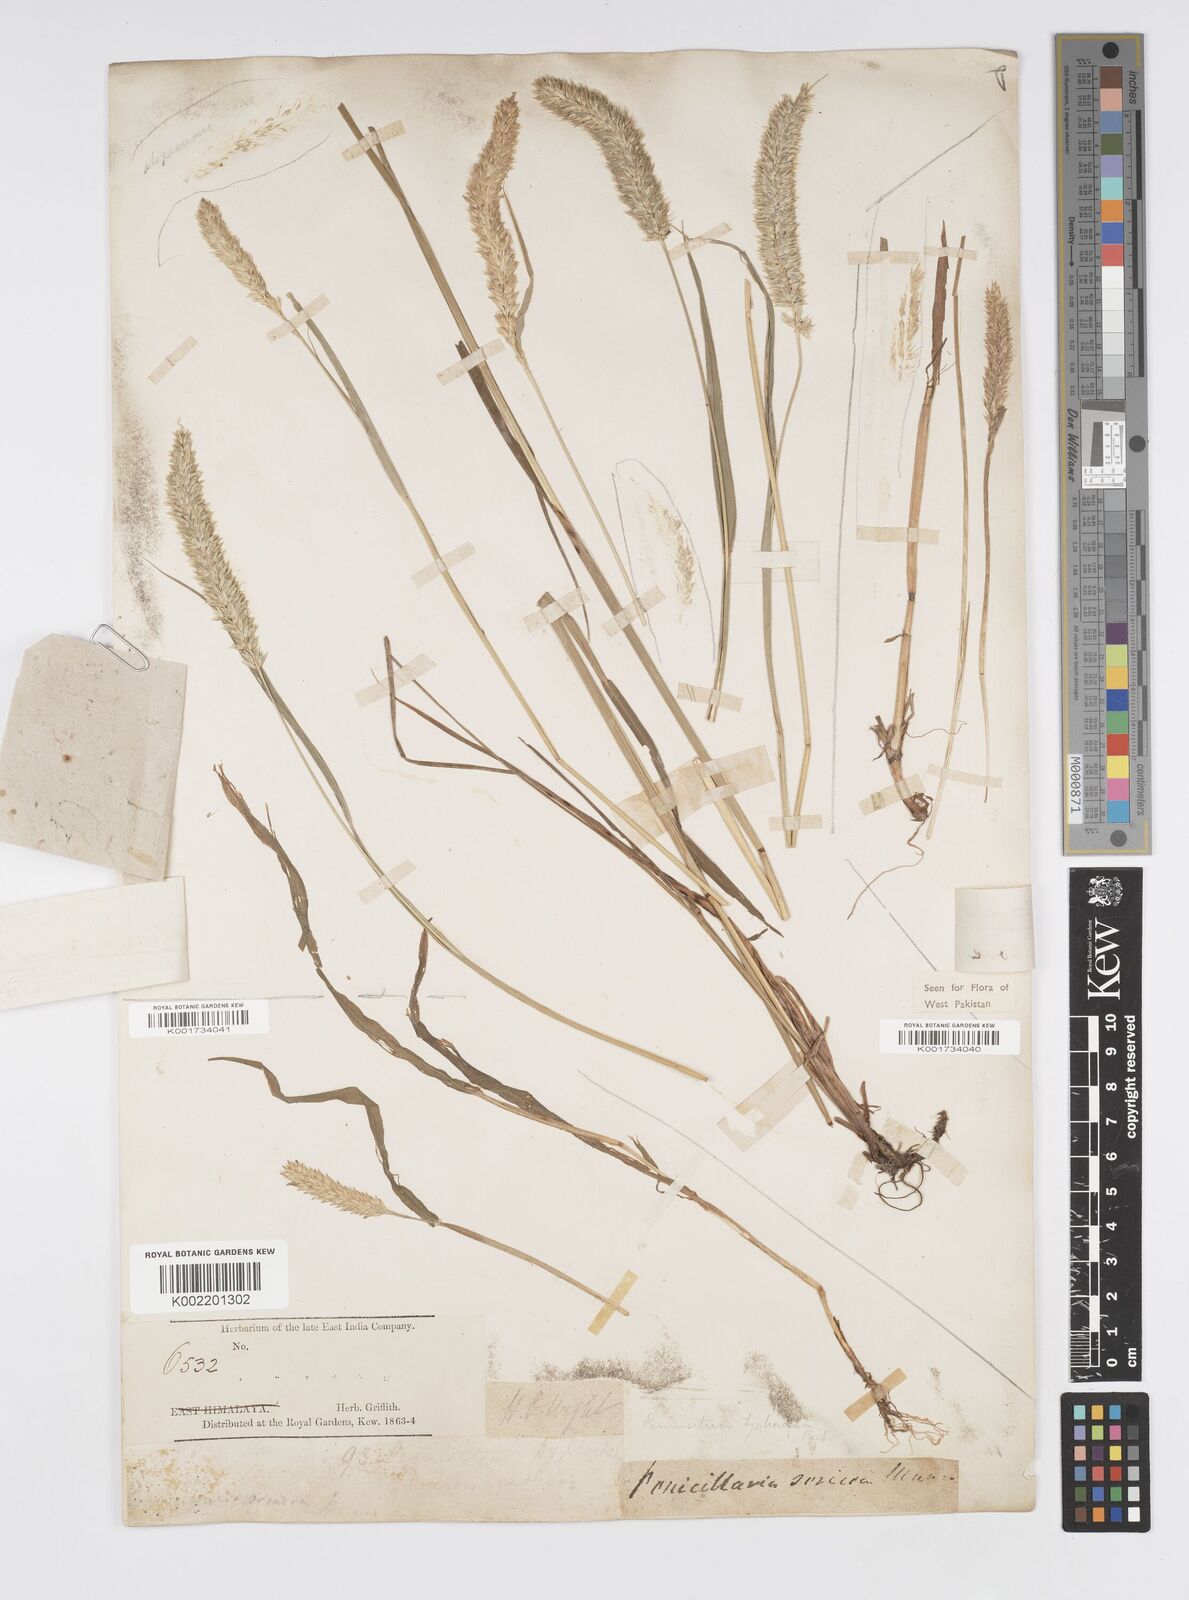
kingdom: Plantae
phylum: Tracheophyta
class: Liliopsida
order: Poales
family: Poaceae
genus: Cenchrus
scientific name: Cenchrus lanatus
